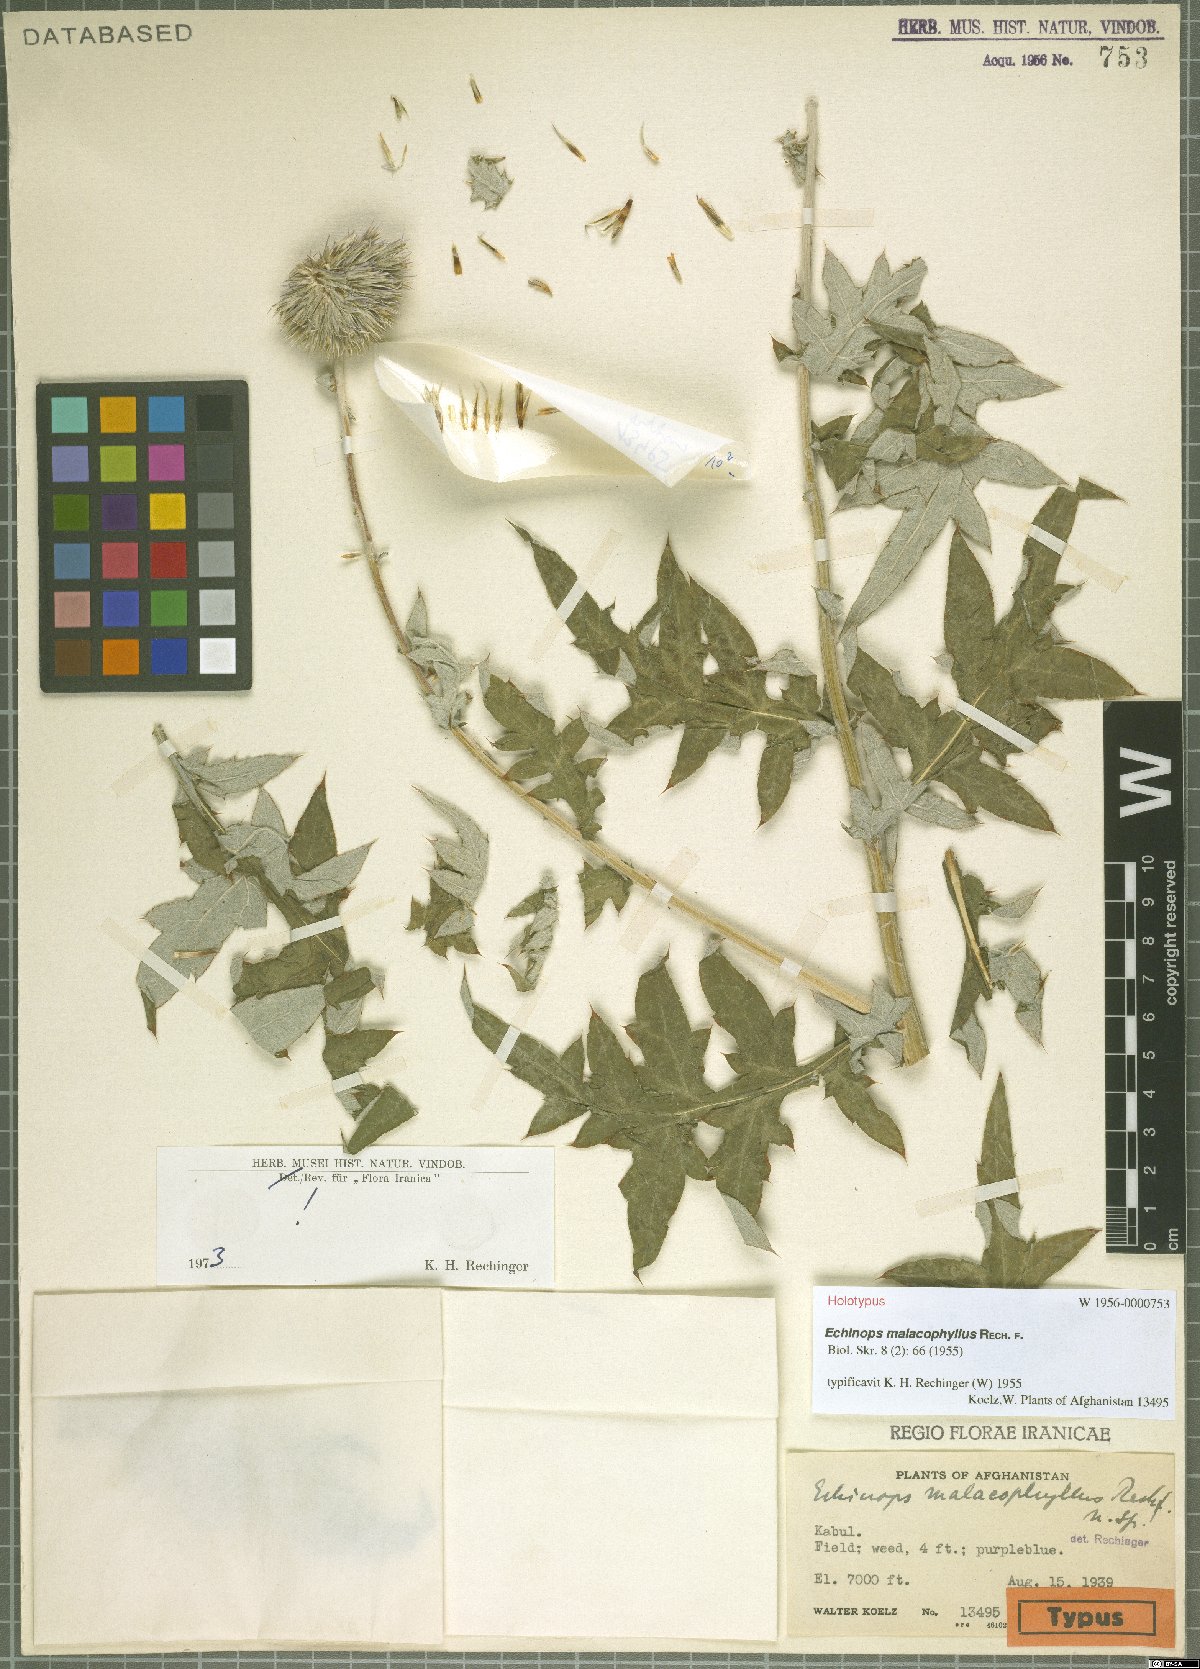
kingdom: Plantae
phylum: Tracheophyta
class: Magnoliopsida
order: Asterales
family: Asteraceae
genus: Echinops
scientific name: Echinops malacophyllus
